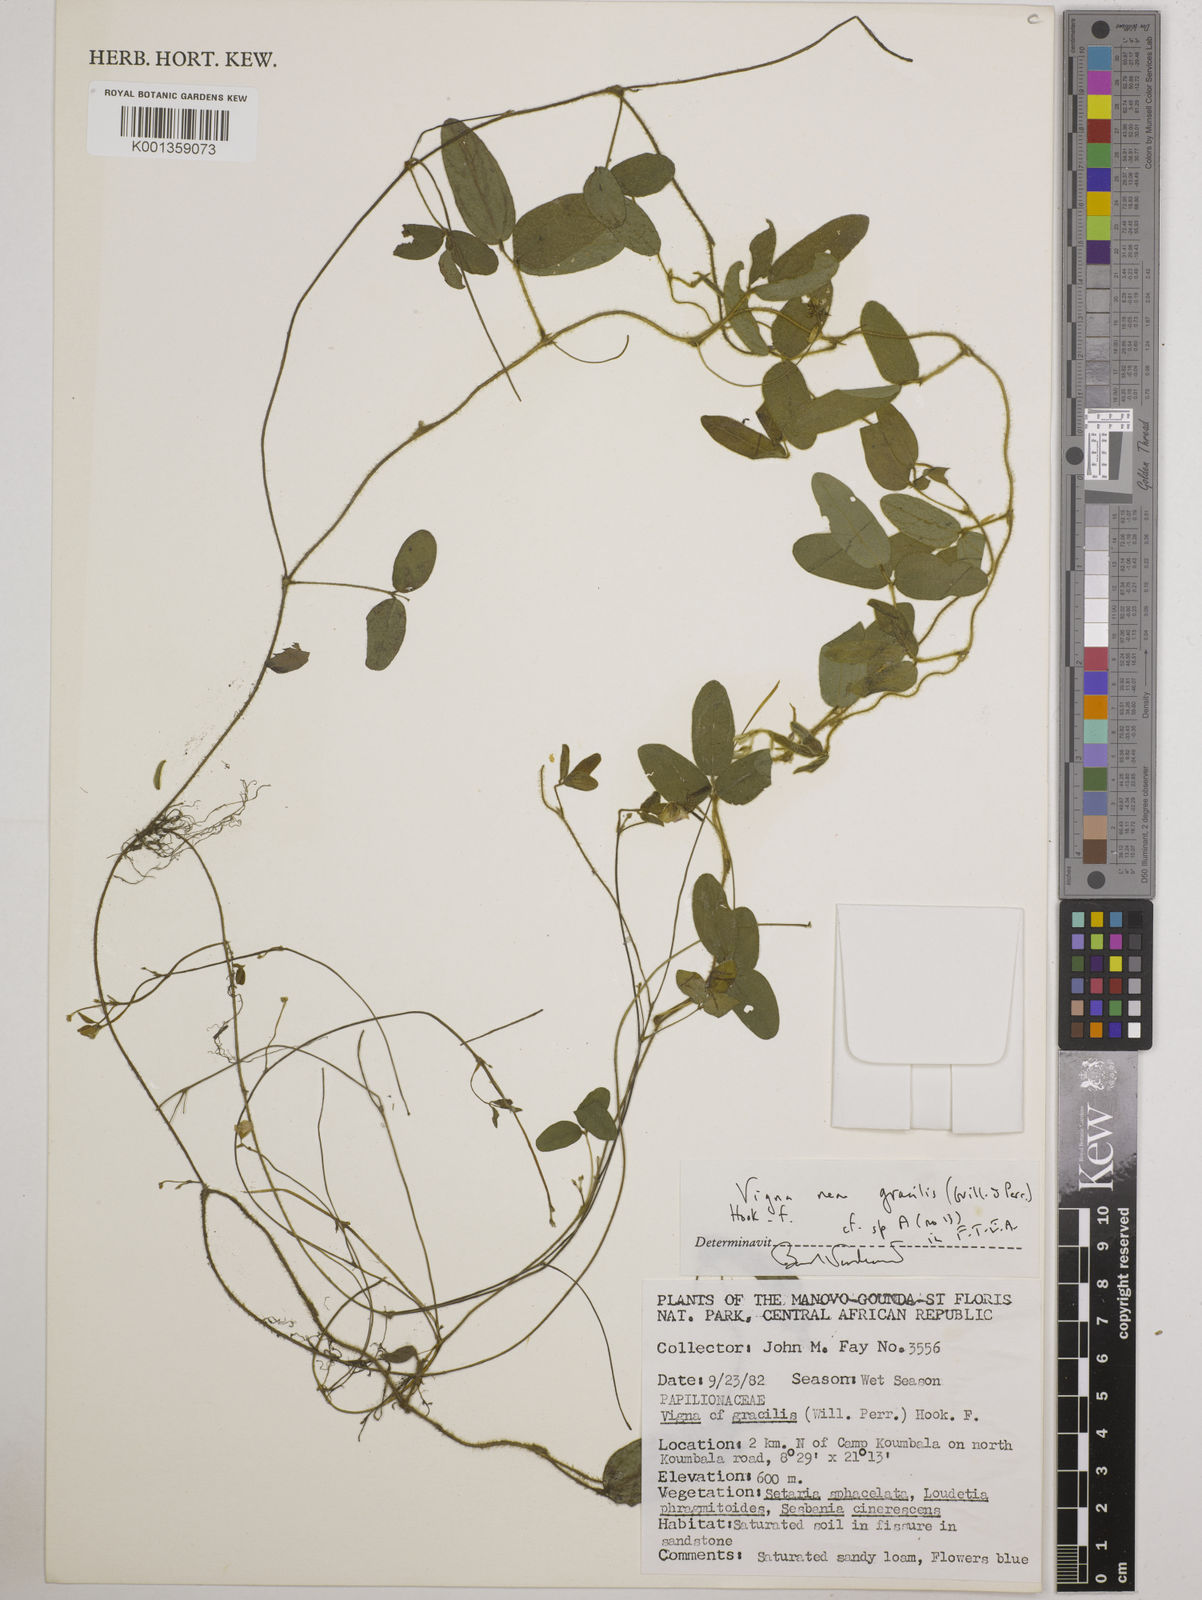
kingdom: Plantae
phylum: Tracheophyta
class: Magnoliopsida
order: Fabales
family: Fabaceae
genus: Vigna
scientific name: Vigna gracilis
